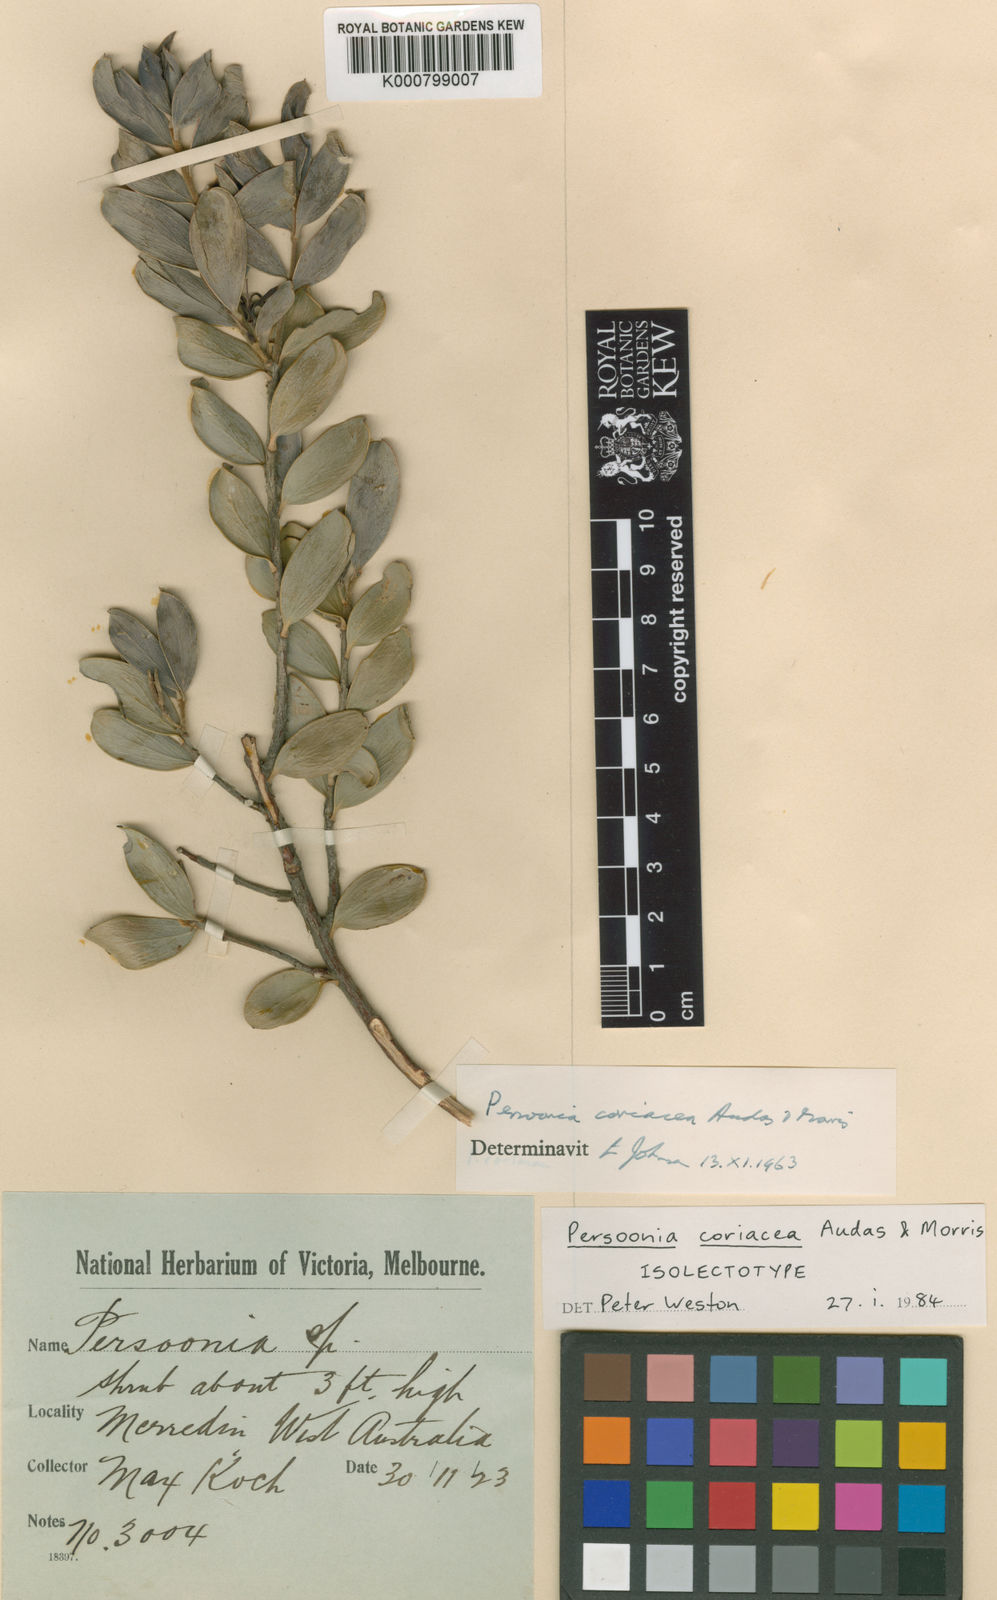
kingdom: Plantae
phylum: Tracheophyta
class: Magnoliopsida
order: Proteales
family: Proteaceae
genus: Persoonia
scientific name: Persoonia coriacea
